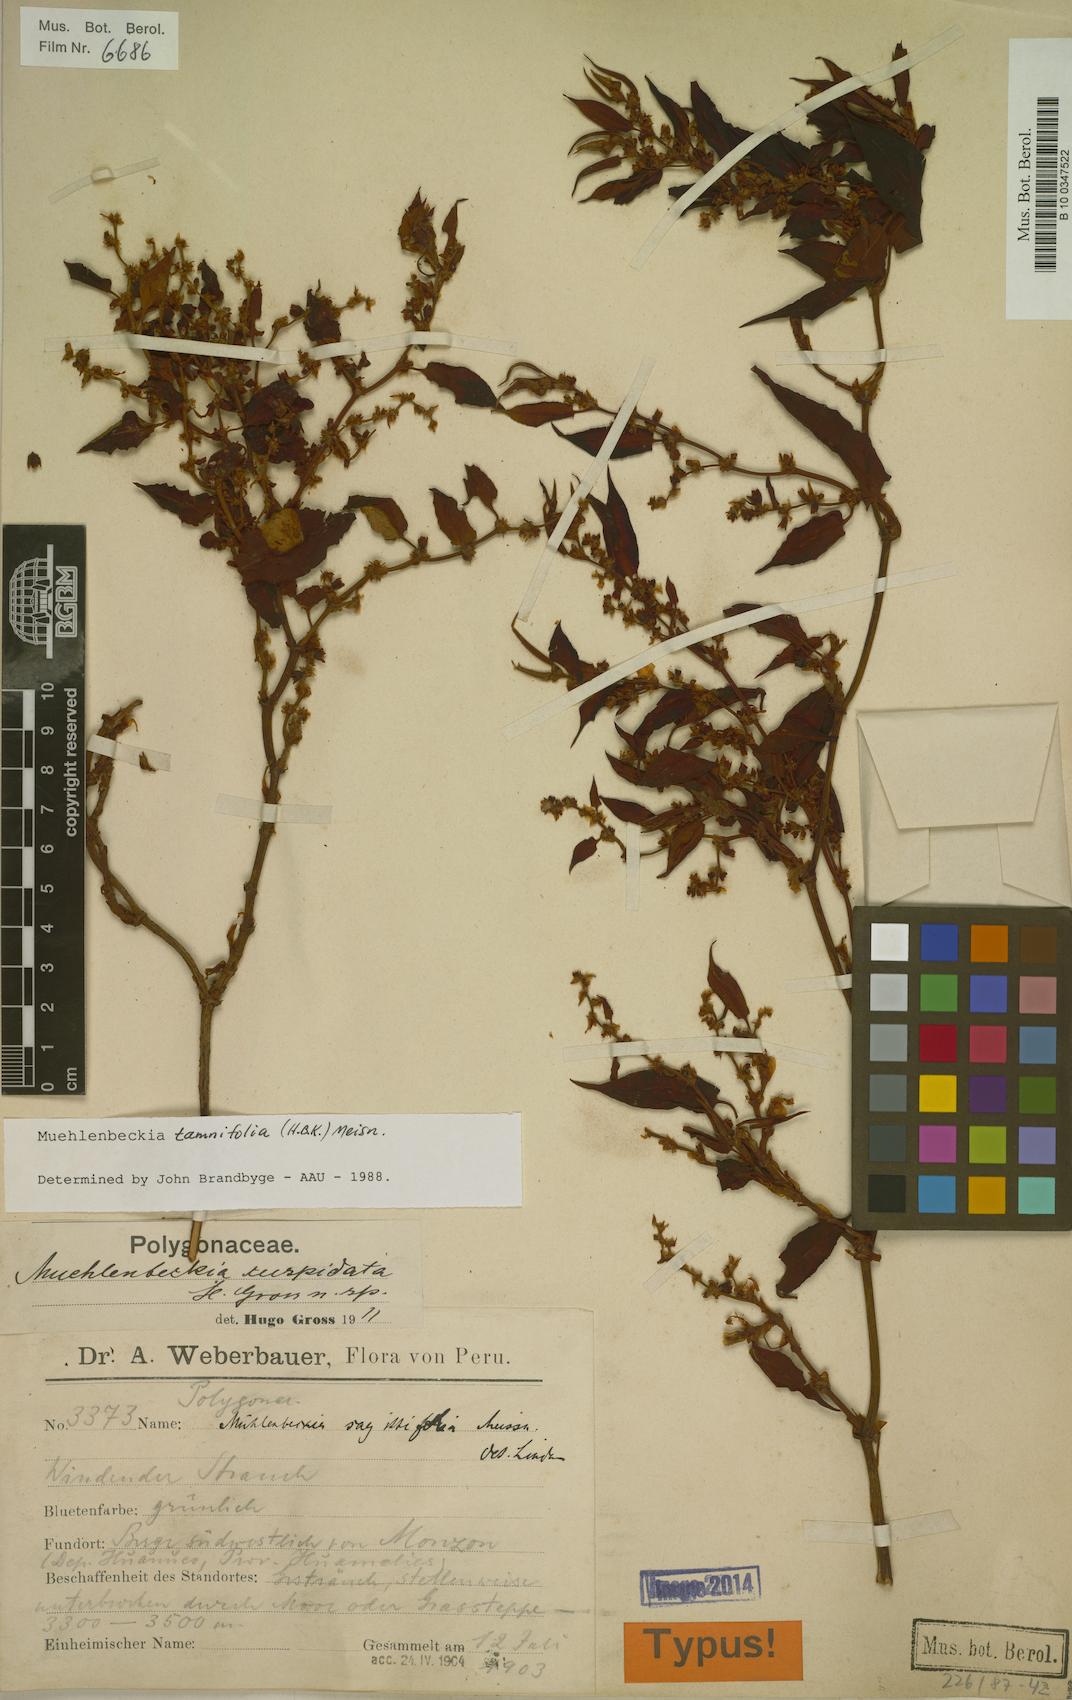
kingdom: Plantae
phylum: Tracheophyta
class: Magnoliopsida
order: Caryophyllales
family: Polygonaceae
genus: Muehlenbeckia
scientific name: Muehlenbeckia tamnifolia
